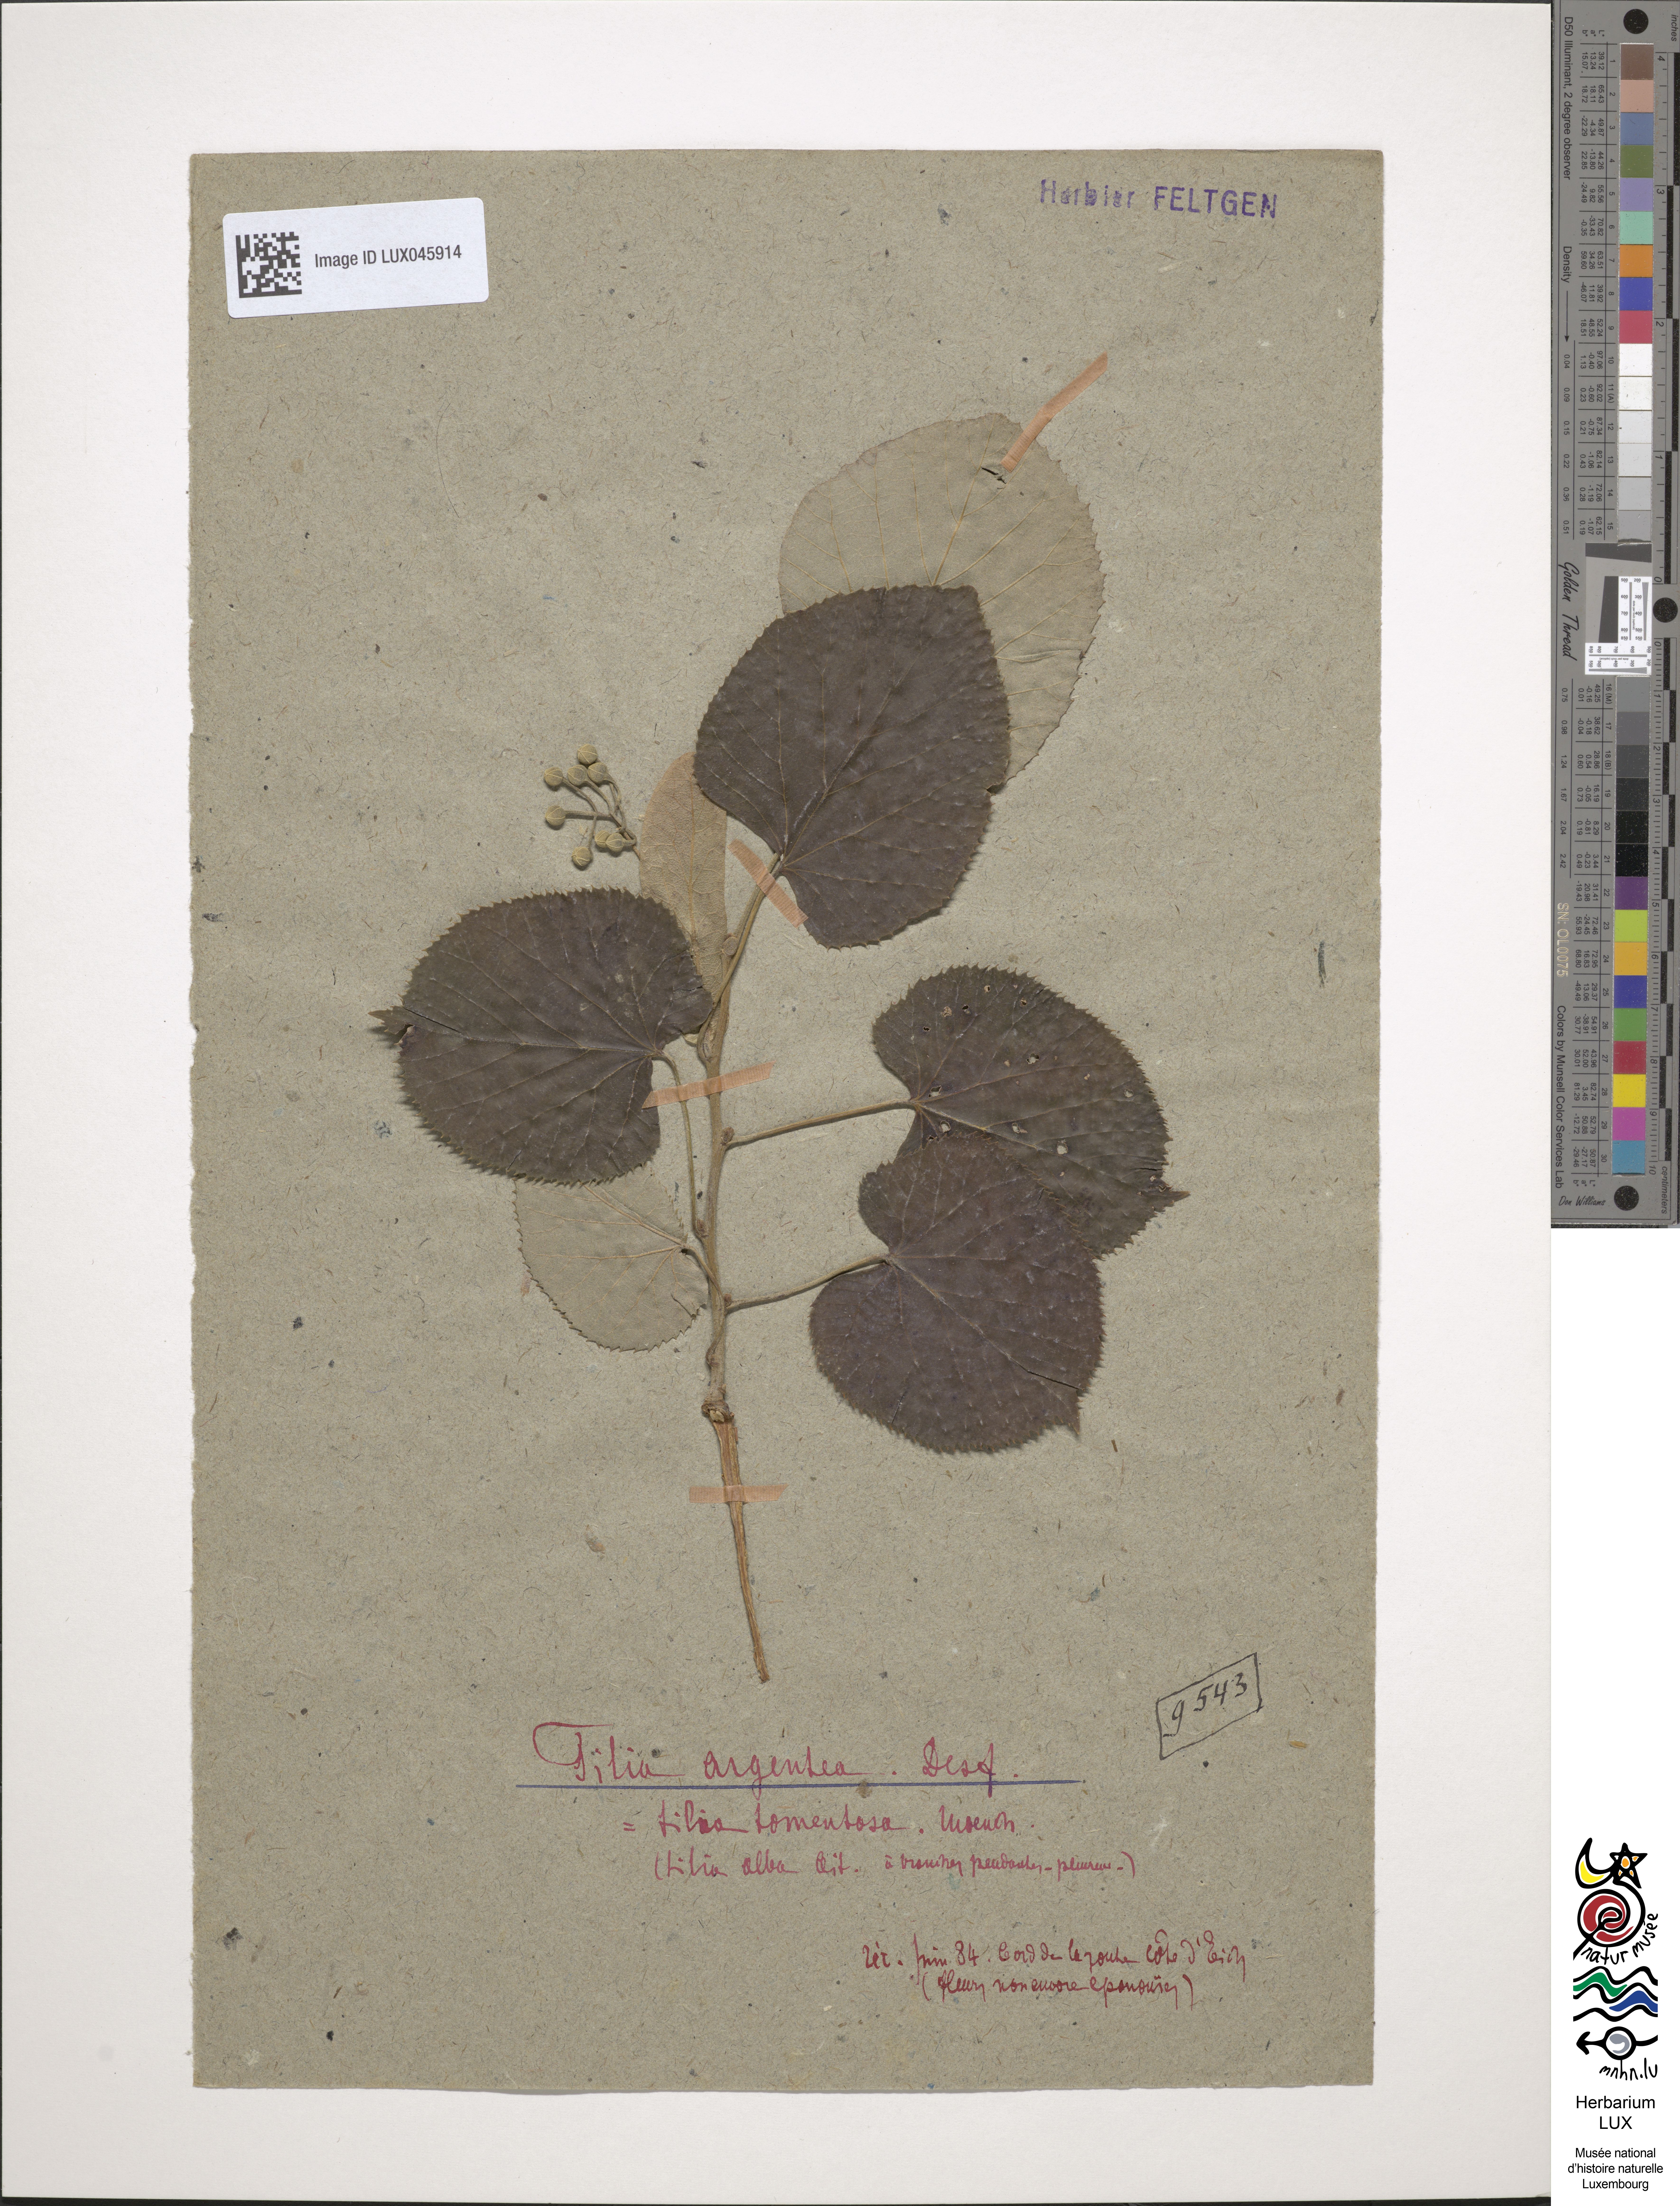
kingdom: Plantae
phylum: Tracheophyta
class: Magnoliopsida
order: Malvales
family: Malvaceae
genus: Tilia
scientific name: Tilia tomentosa
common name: Silver lime
